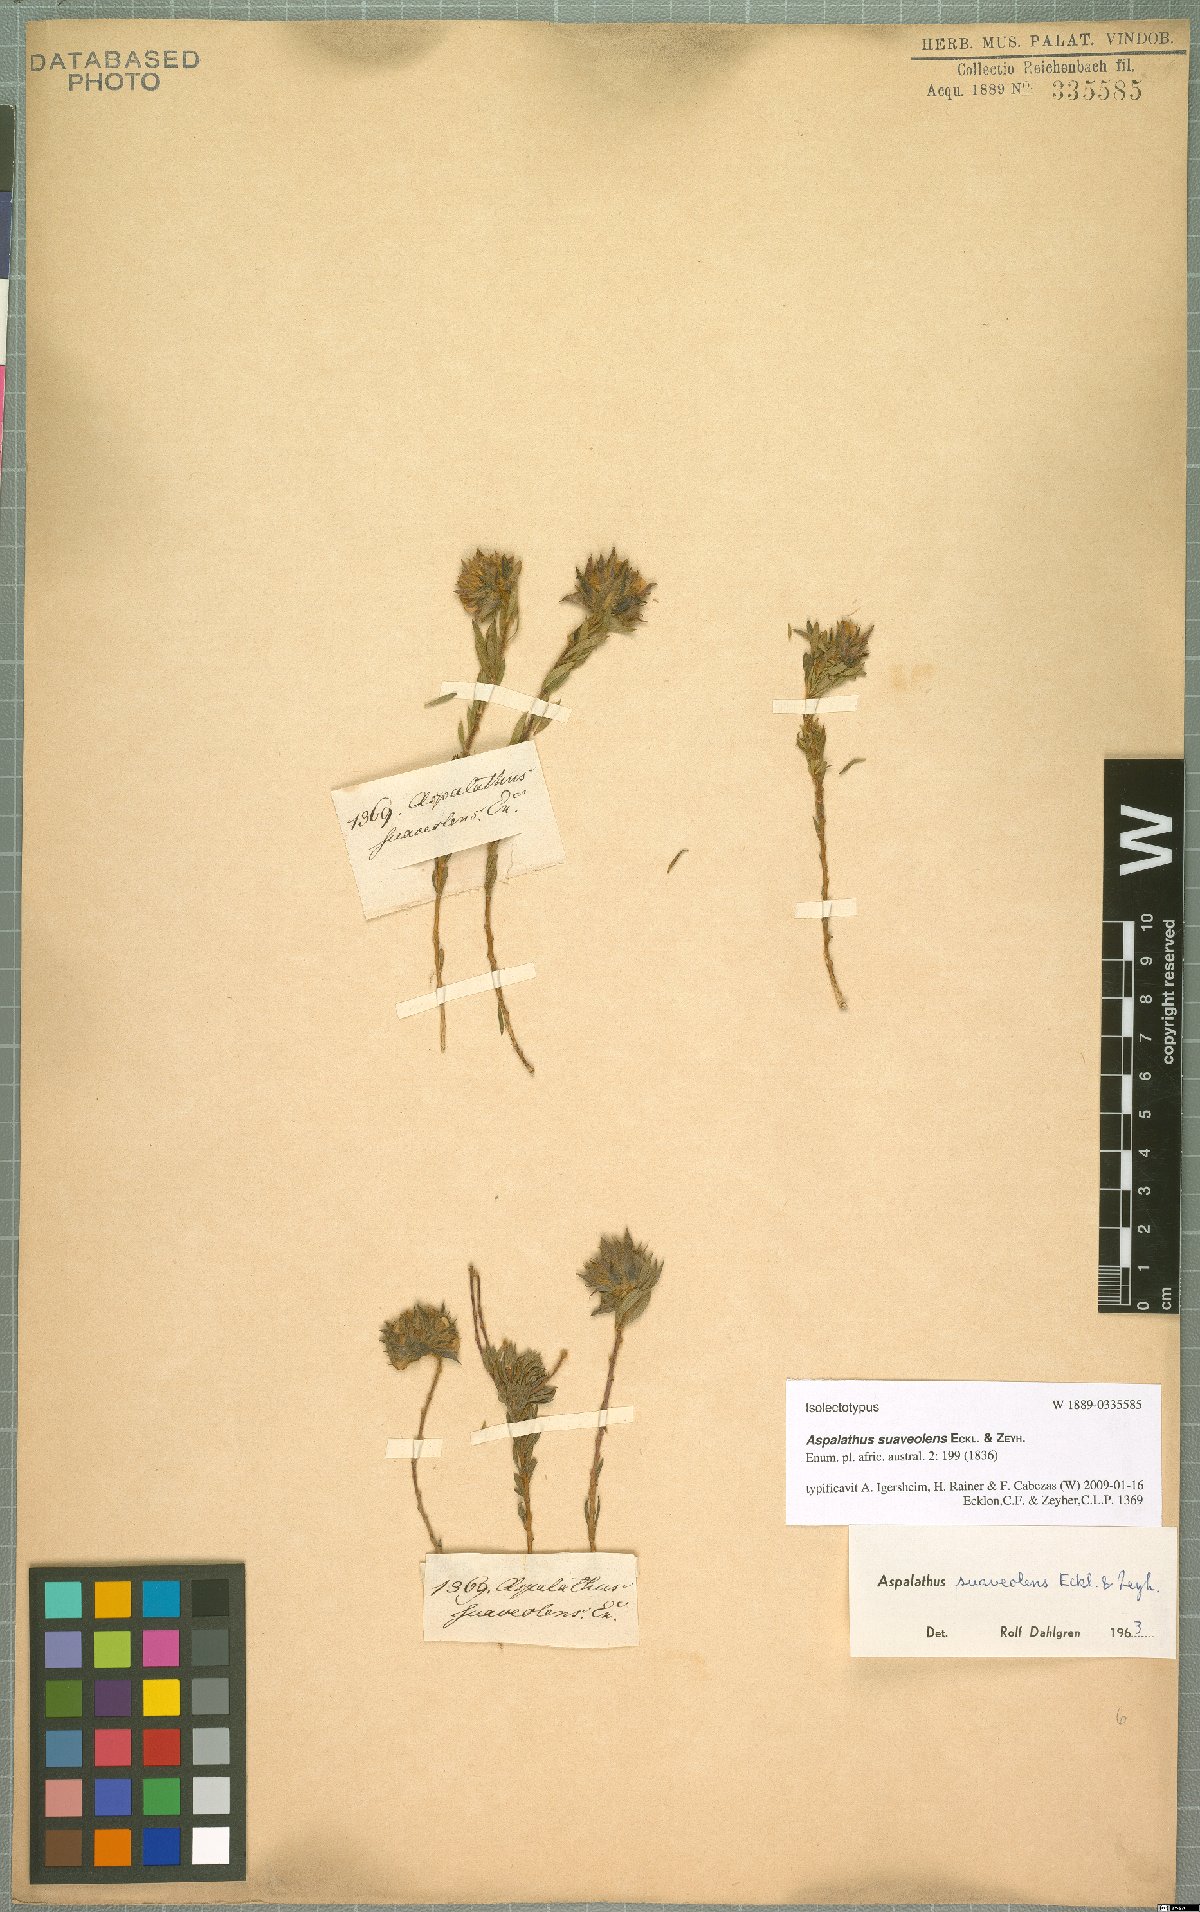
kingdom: Plantae
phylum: Tracheophyta
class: Magnoliopsida
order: Fabales
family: Fabaceae
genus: Aspalathus
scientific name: Aspalathus suaveolens
